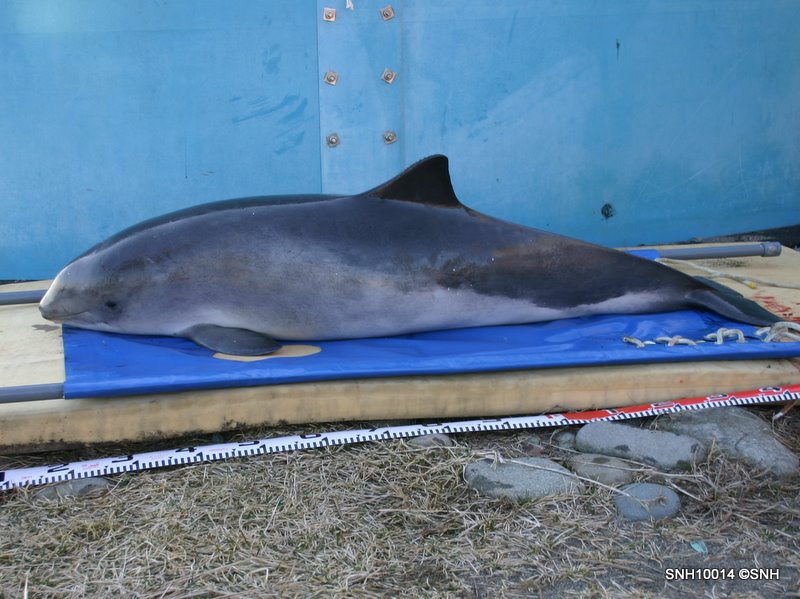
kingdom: Animalia
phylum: Chordata
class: Mammalia
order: Cetacea
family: Phocoenidae
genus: Phocoena
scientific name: Phocoena phocoena
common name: Harbour porpoise
